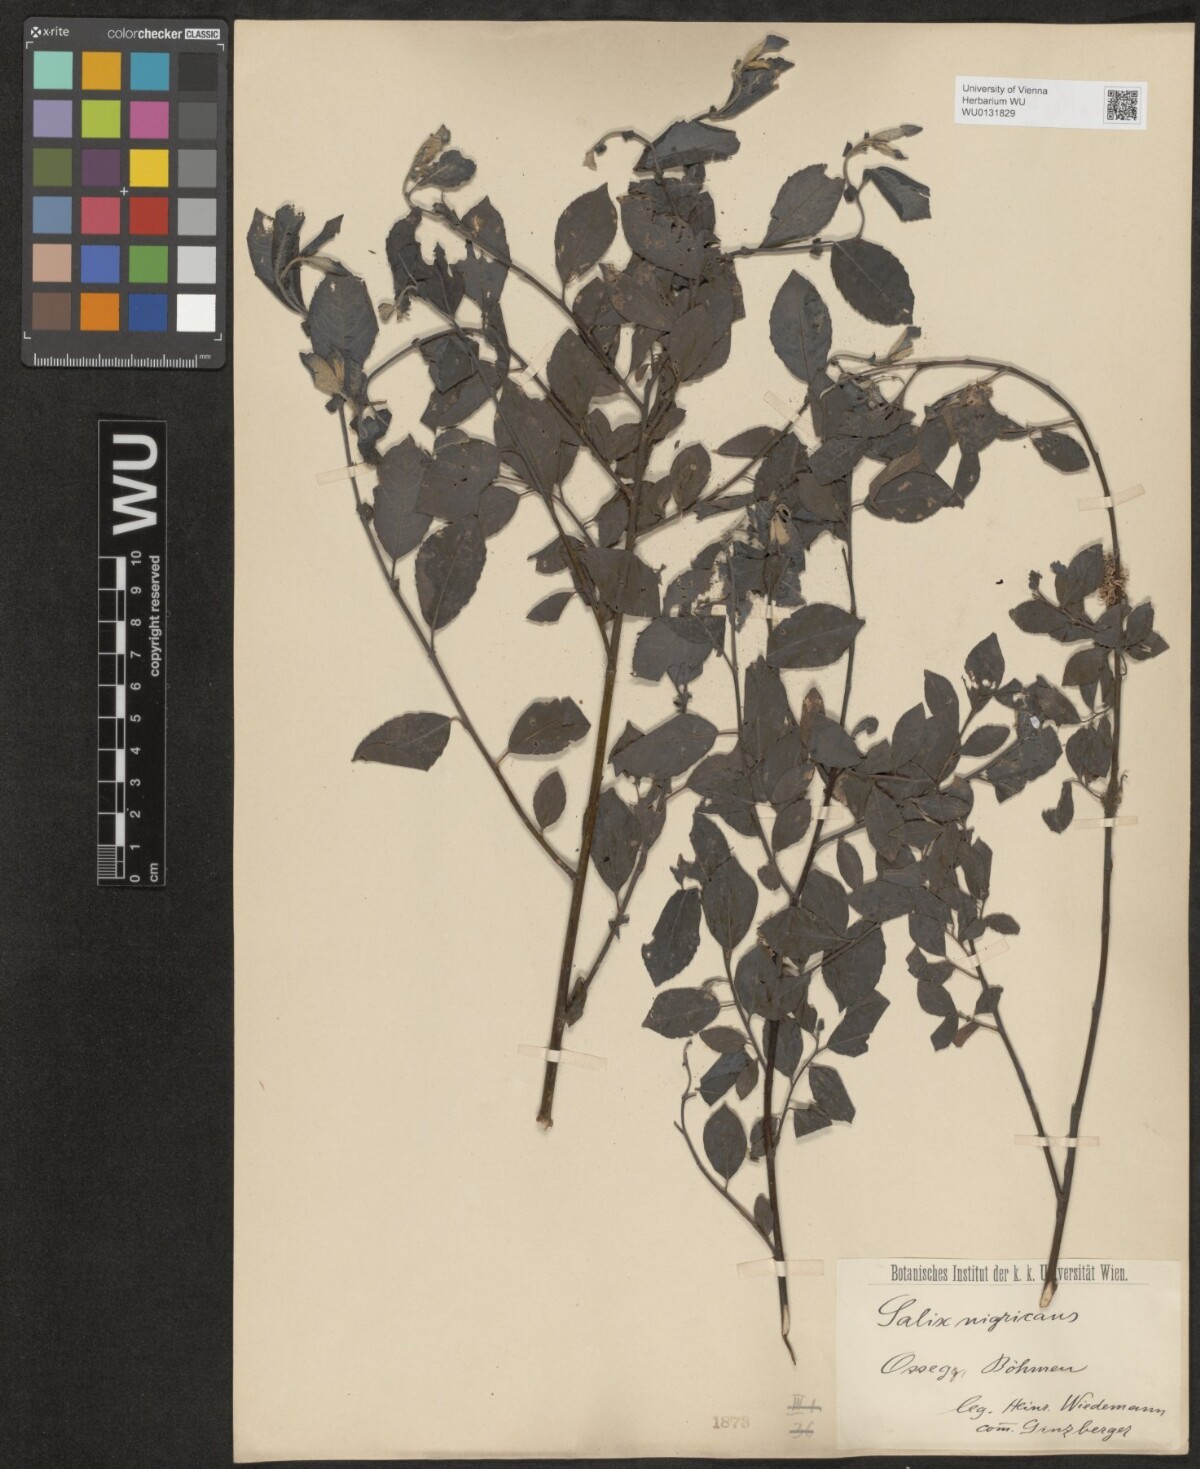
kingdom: Plantae
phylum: Tracheophyta
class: Magnoliopsida
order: Malpighiales
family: Salicaceae
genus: Salix
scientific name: Salix myrsinifolia
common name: Dark-leaved willow
